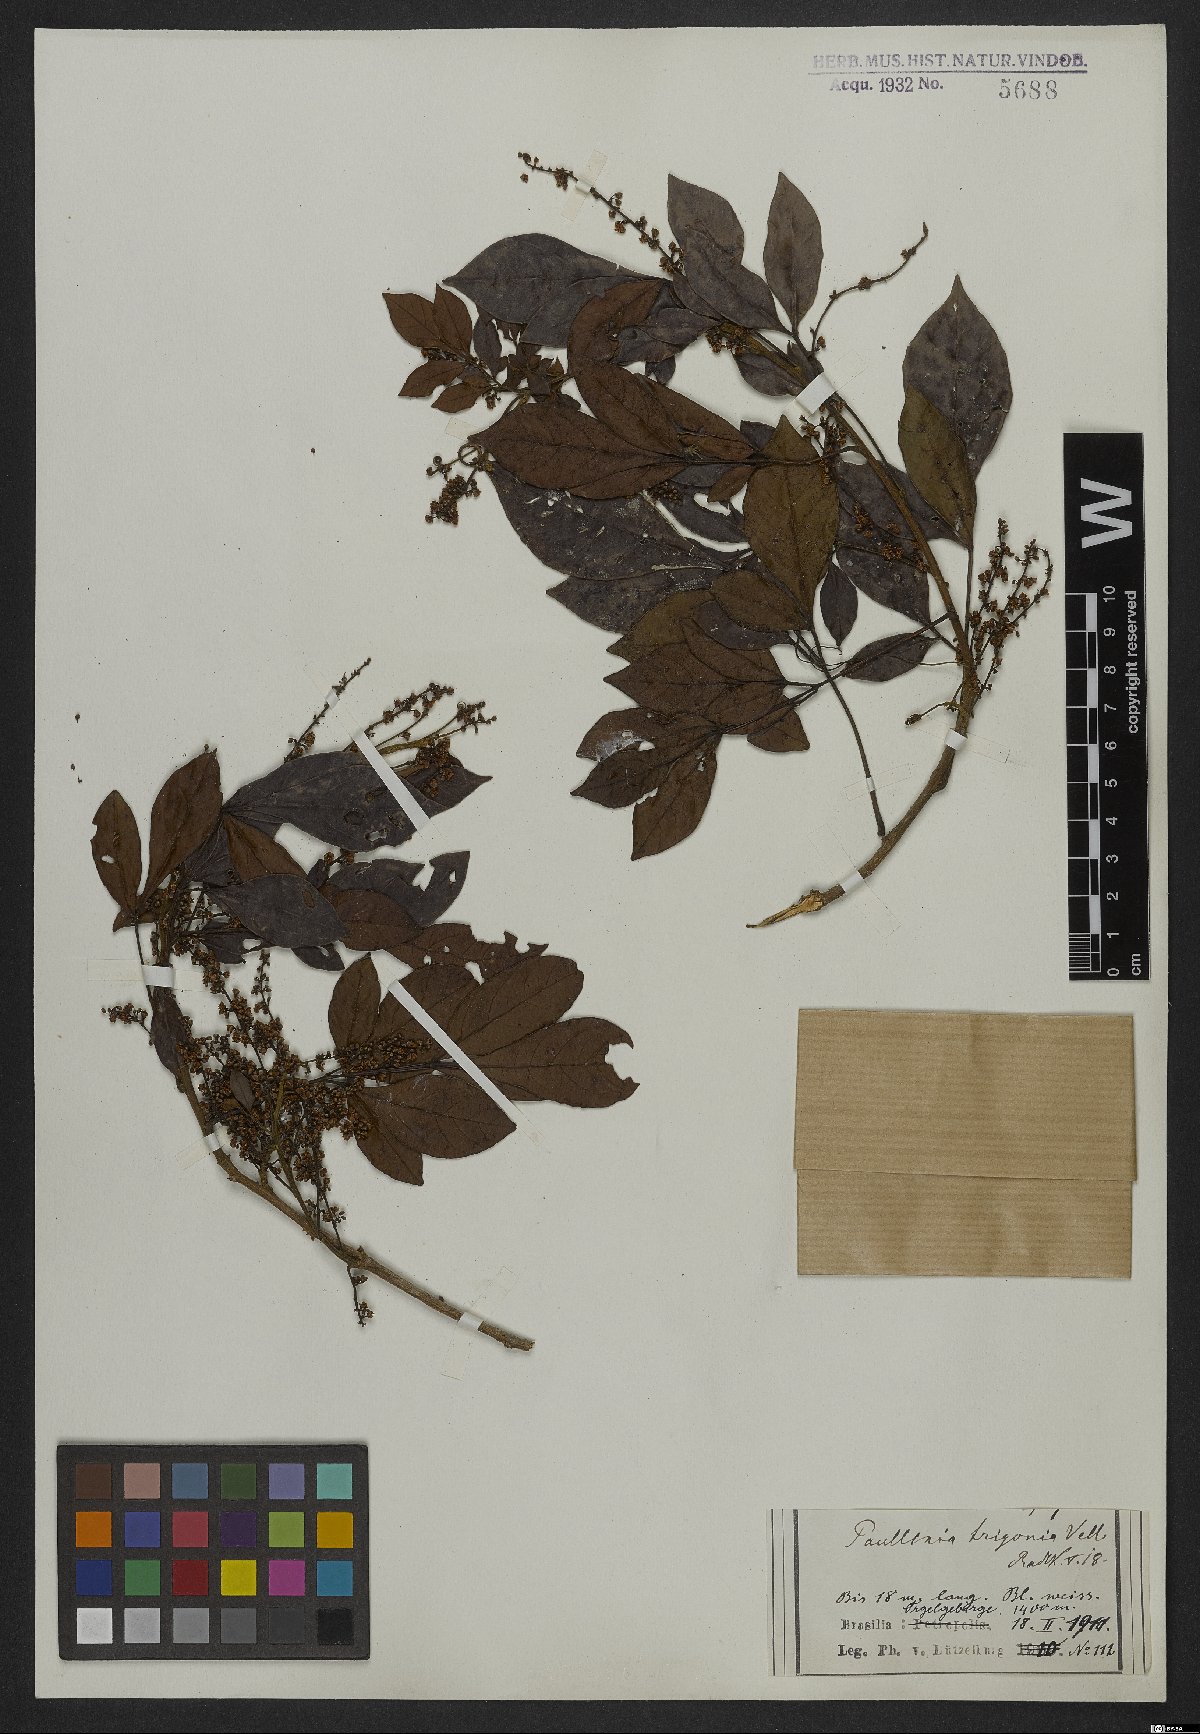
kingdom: Plantae
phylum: Tracheophyta
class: Magnoliopsida
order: Sapindales
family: Sapindaceae
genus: Paullinia
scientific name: Paullinia trigonia
